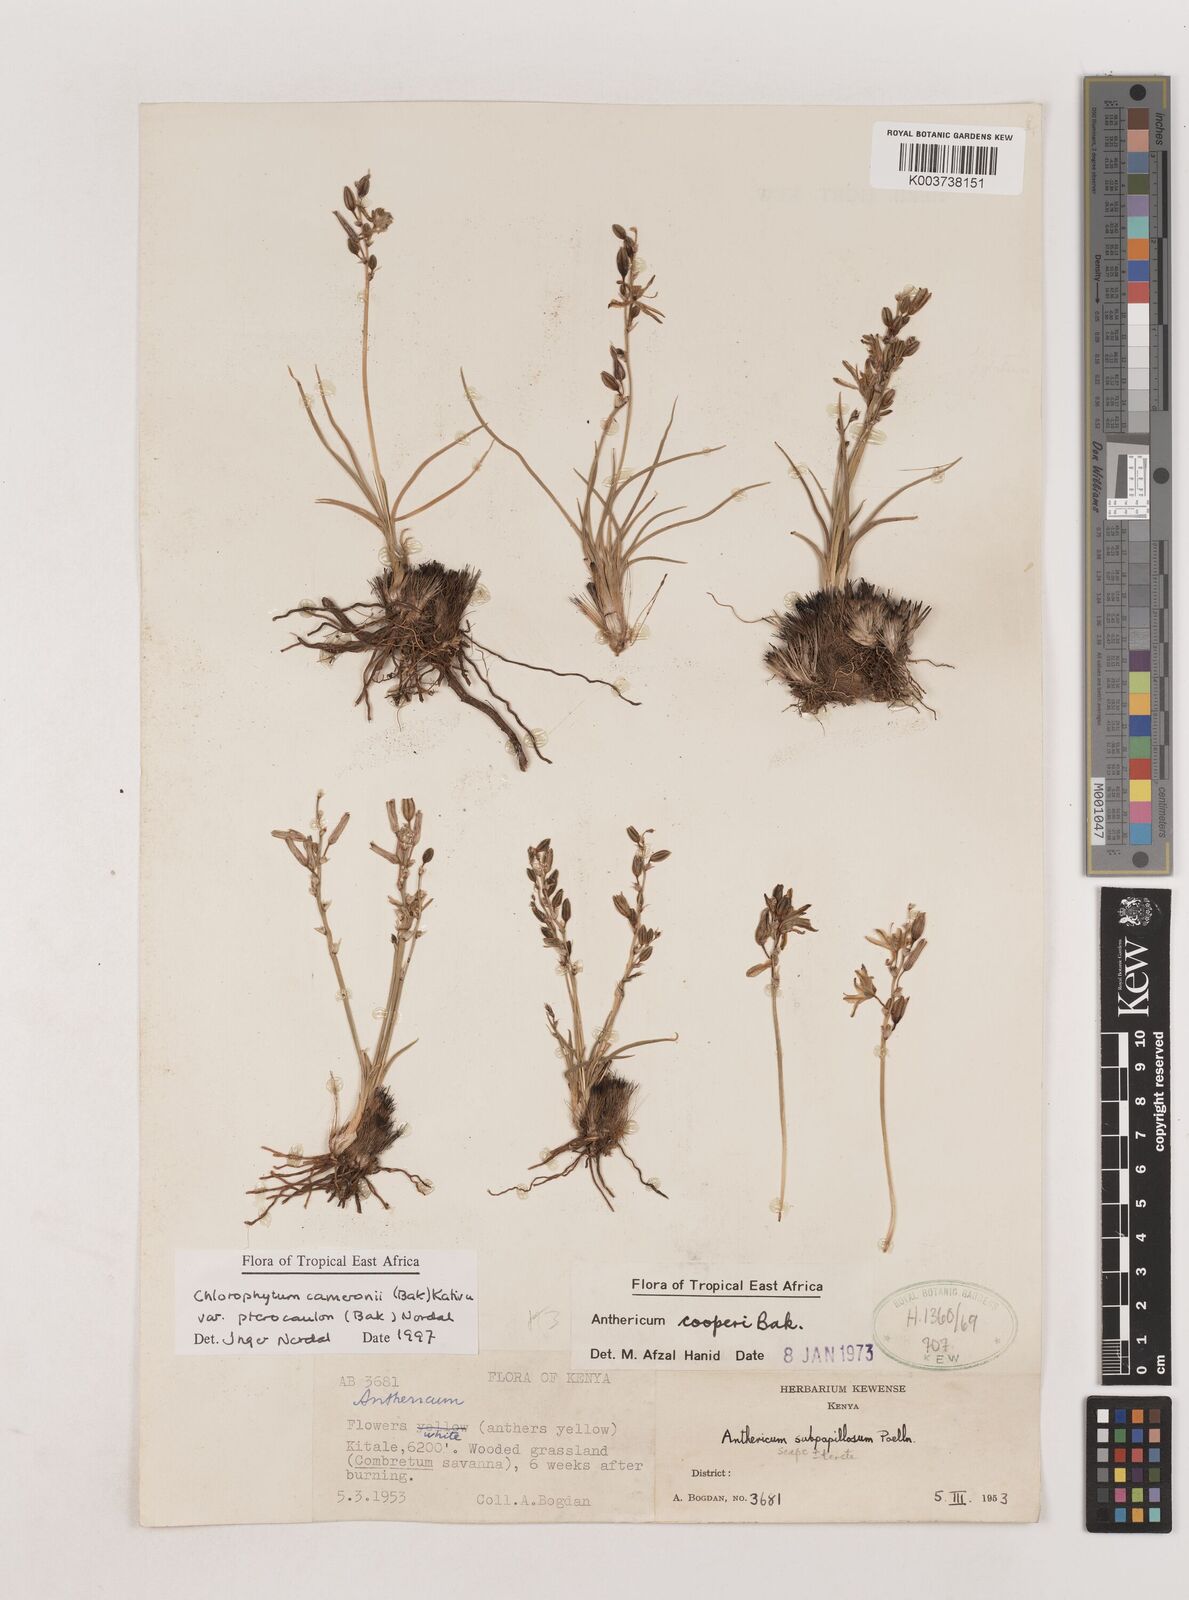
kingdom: Plantae
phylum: Tracheophyta
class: Liliopsida
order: Asparagales
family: Asparagaceae
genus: Chlorophytum
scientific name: Chlorophytum cameronii
